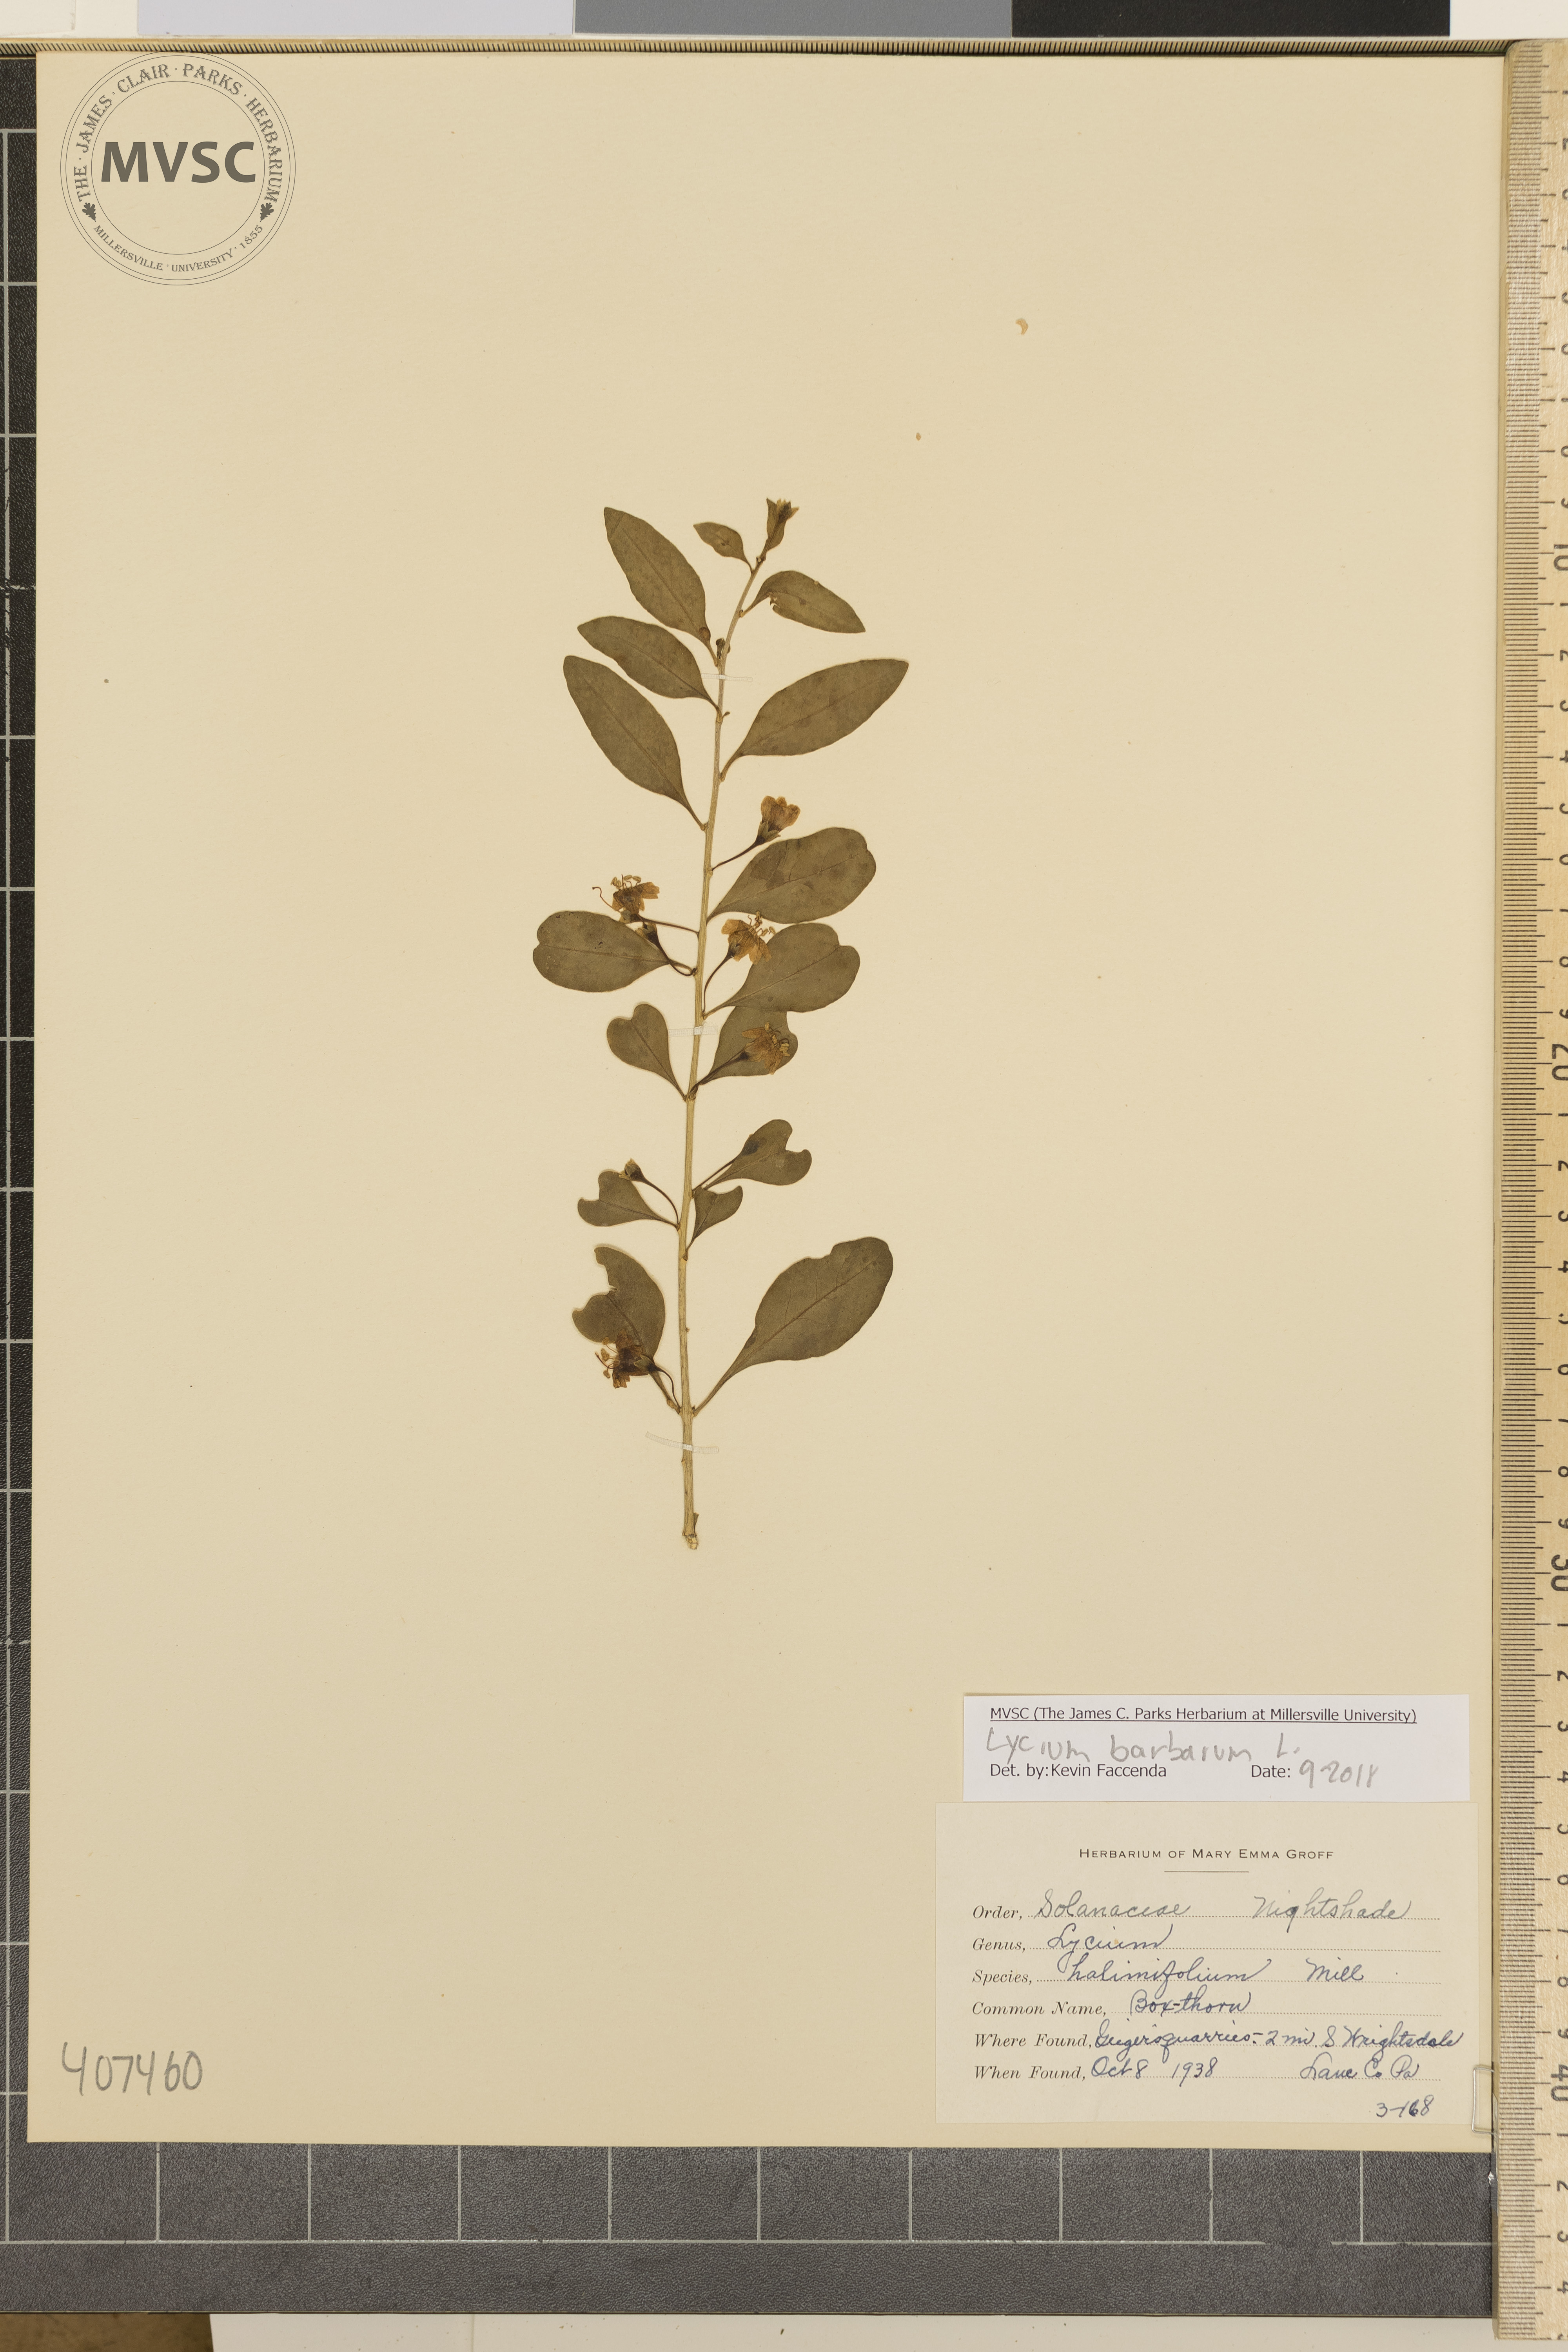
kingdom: Plantae
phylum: Tracheophyta
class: Magnoliopsida
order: Solanales
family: Solanaceae
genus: Lycium
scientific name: Lycium barbarum
